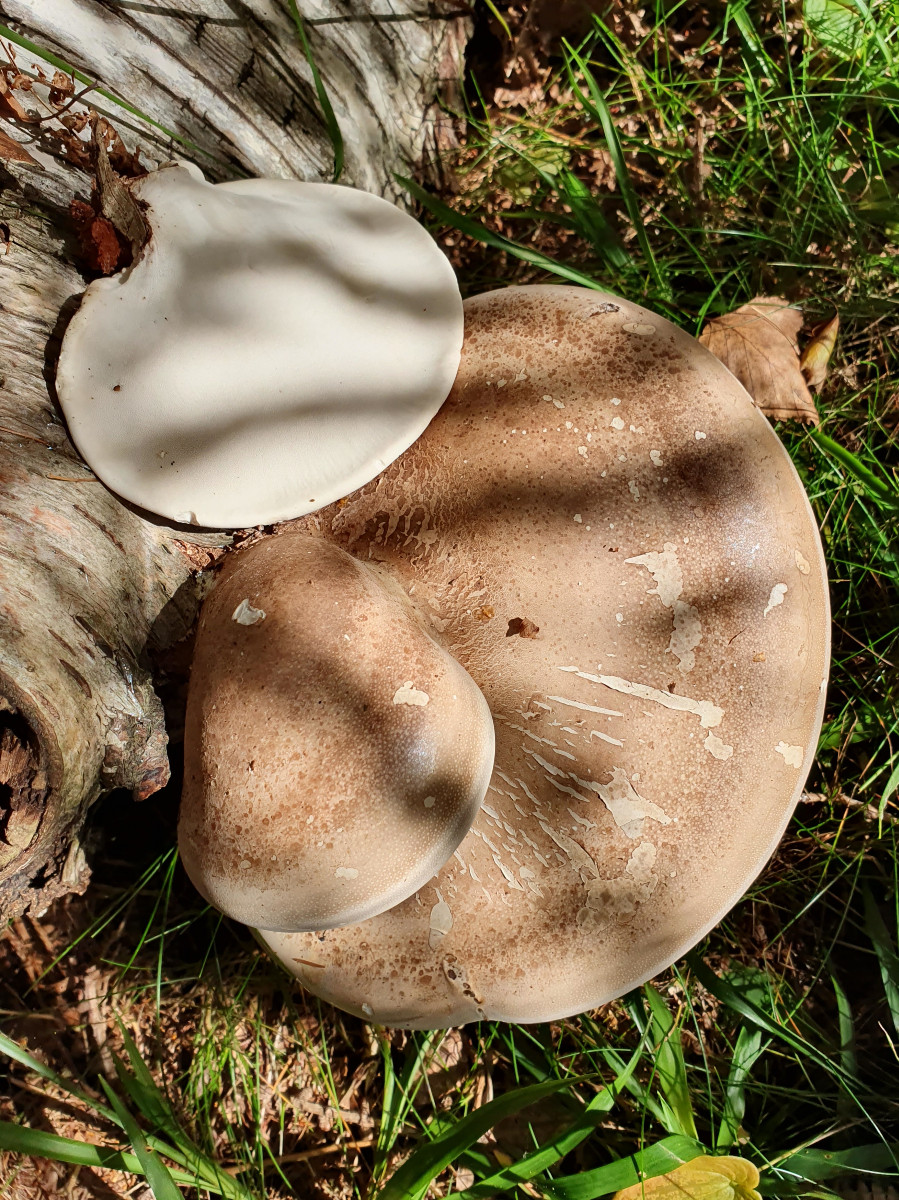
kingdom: Fungi
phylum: Basidiomycota
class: Agaricomycetes
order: Polyporales
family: Fomitopsidaceae
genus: Fomitopsis
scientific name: Fomitopsis betulina
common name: birkeporesvamp
